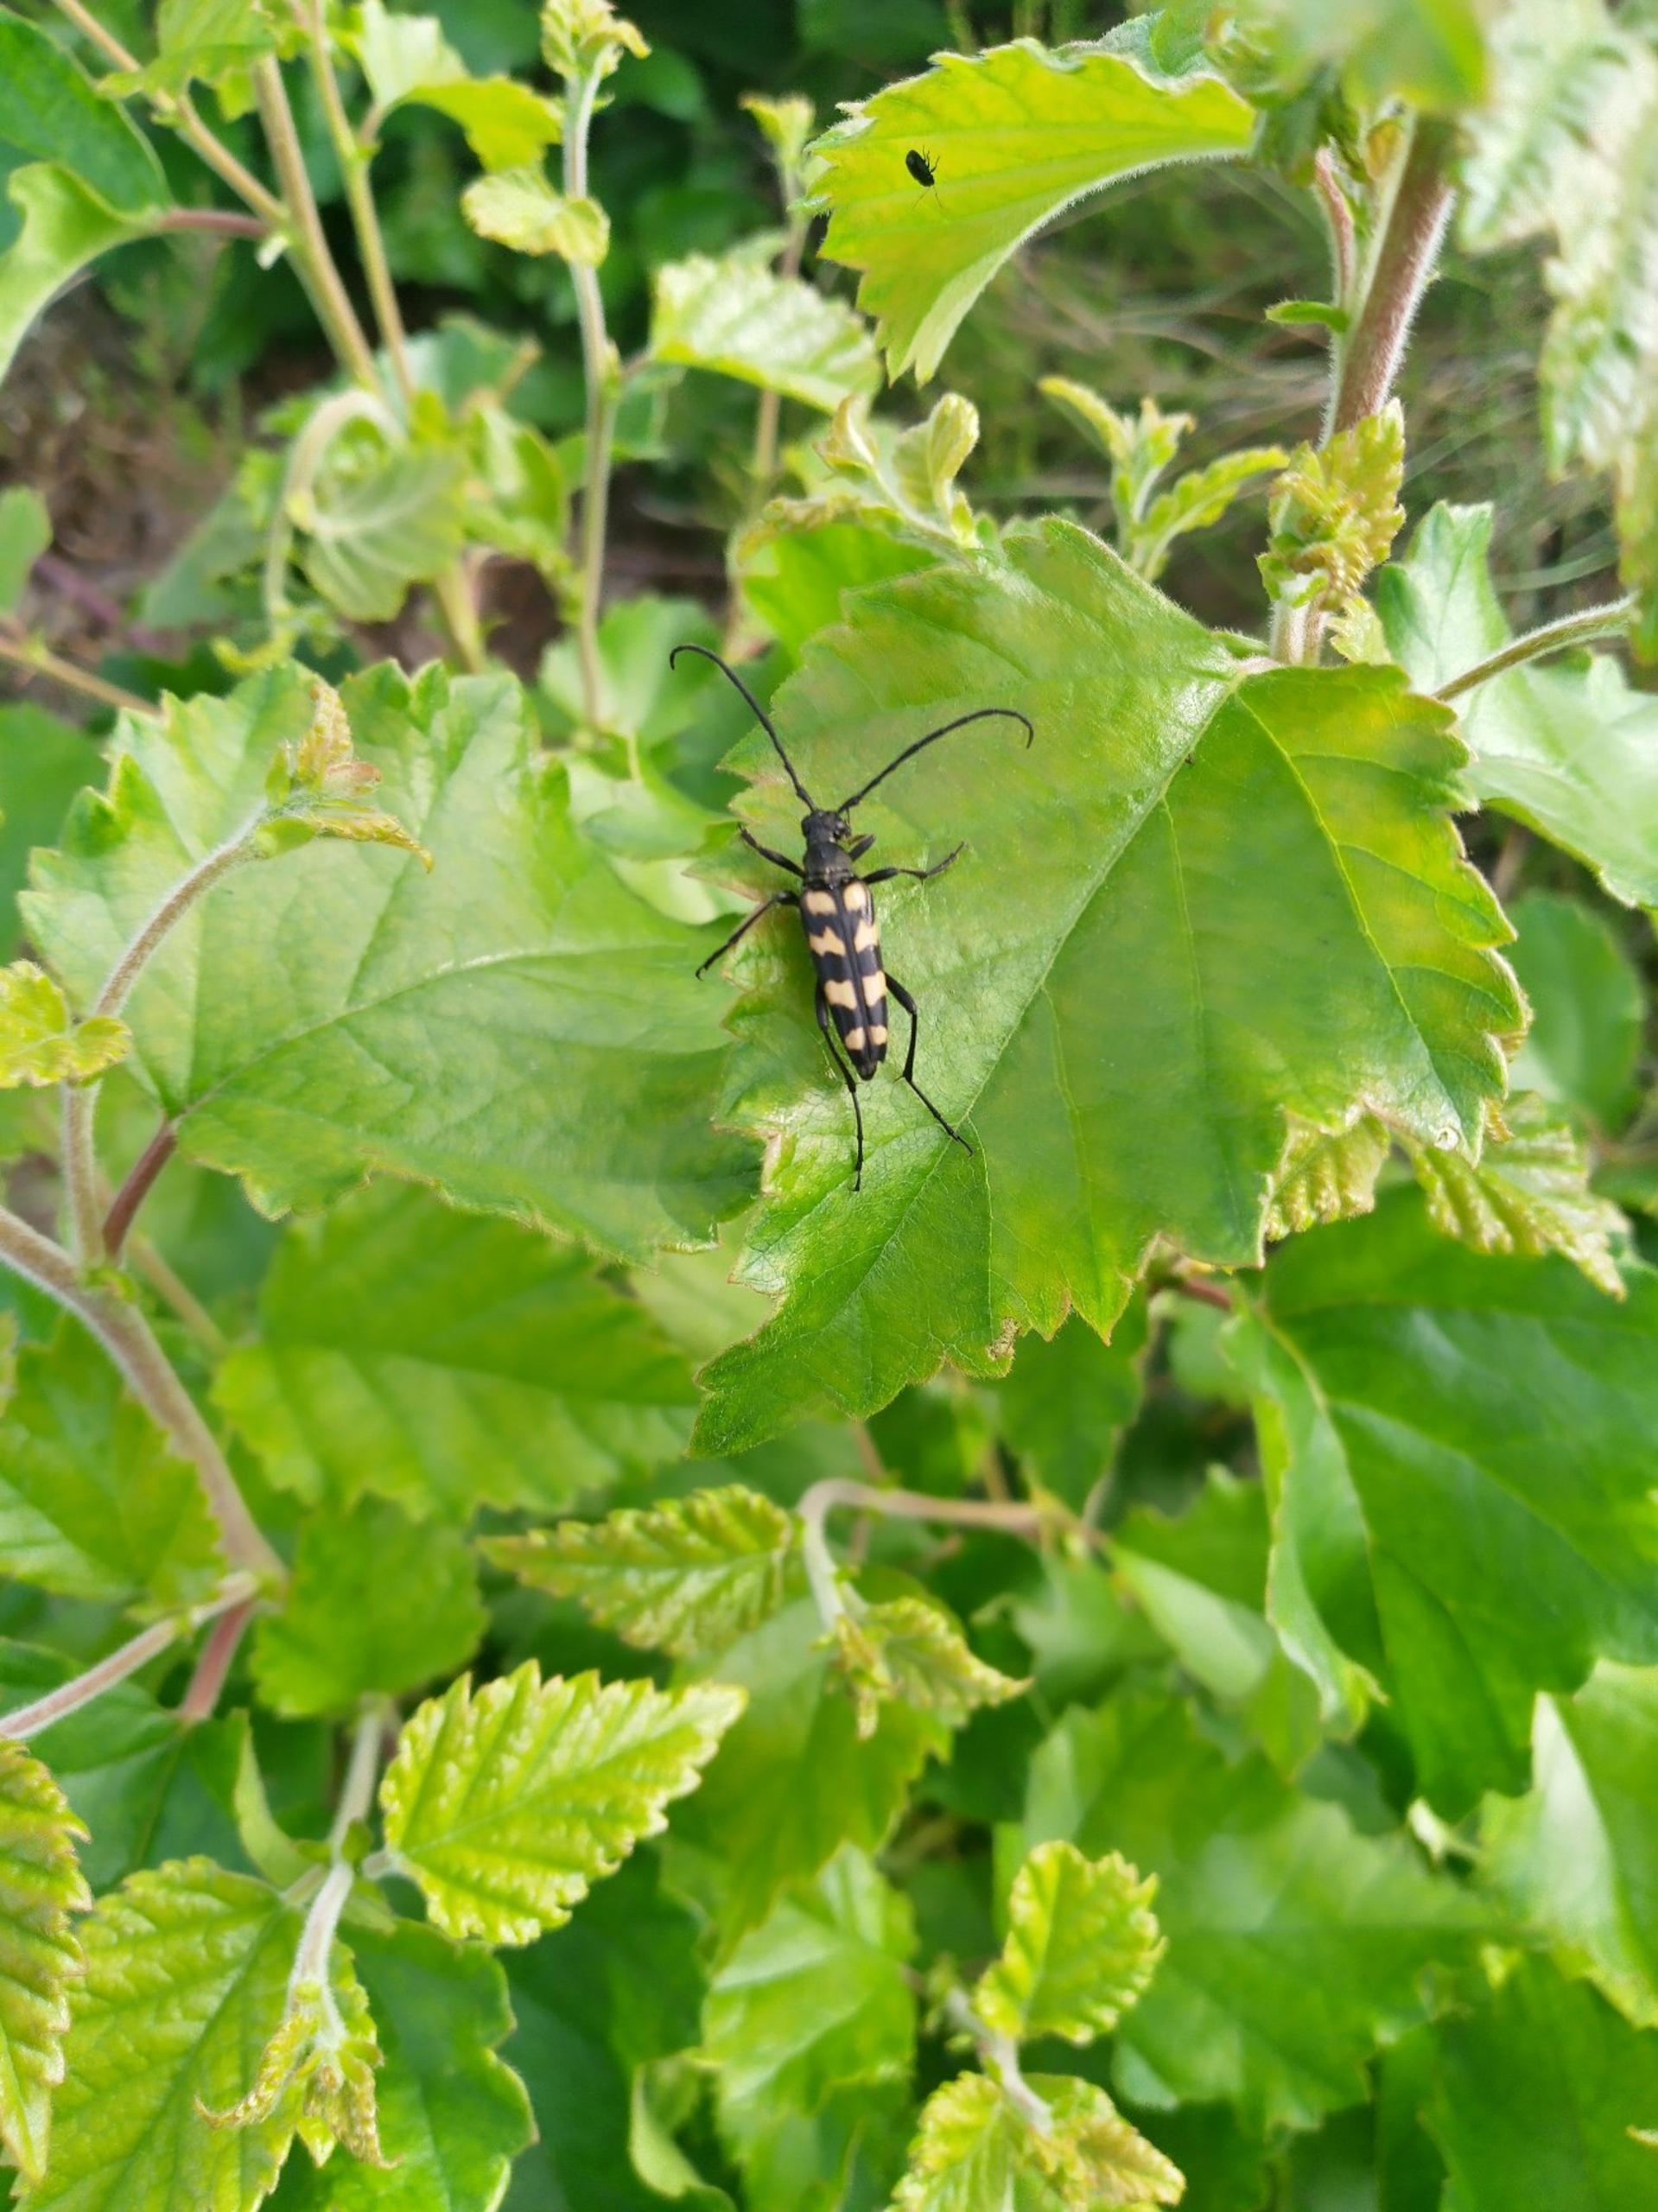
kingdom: Animalia
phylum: Arthropoda
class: Insecta
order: Coleoptera
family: Cerambycidae
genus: Leptura
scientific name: Leptura quadrifasciata
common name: Firebåndet blomsterbuk
